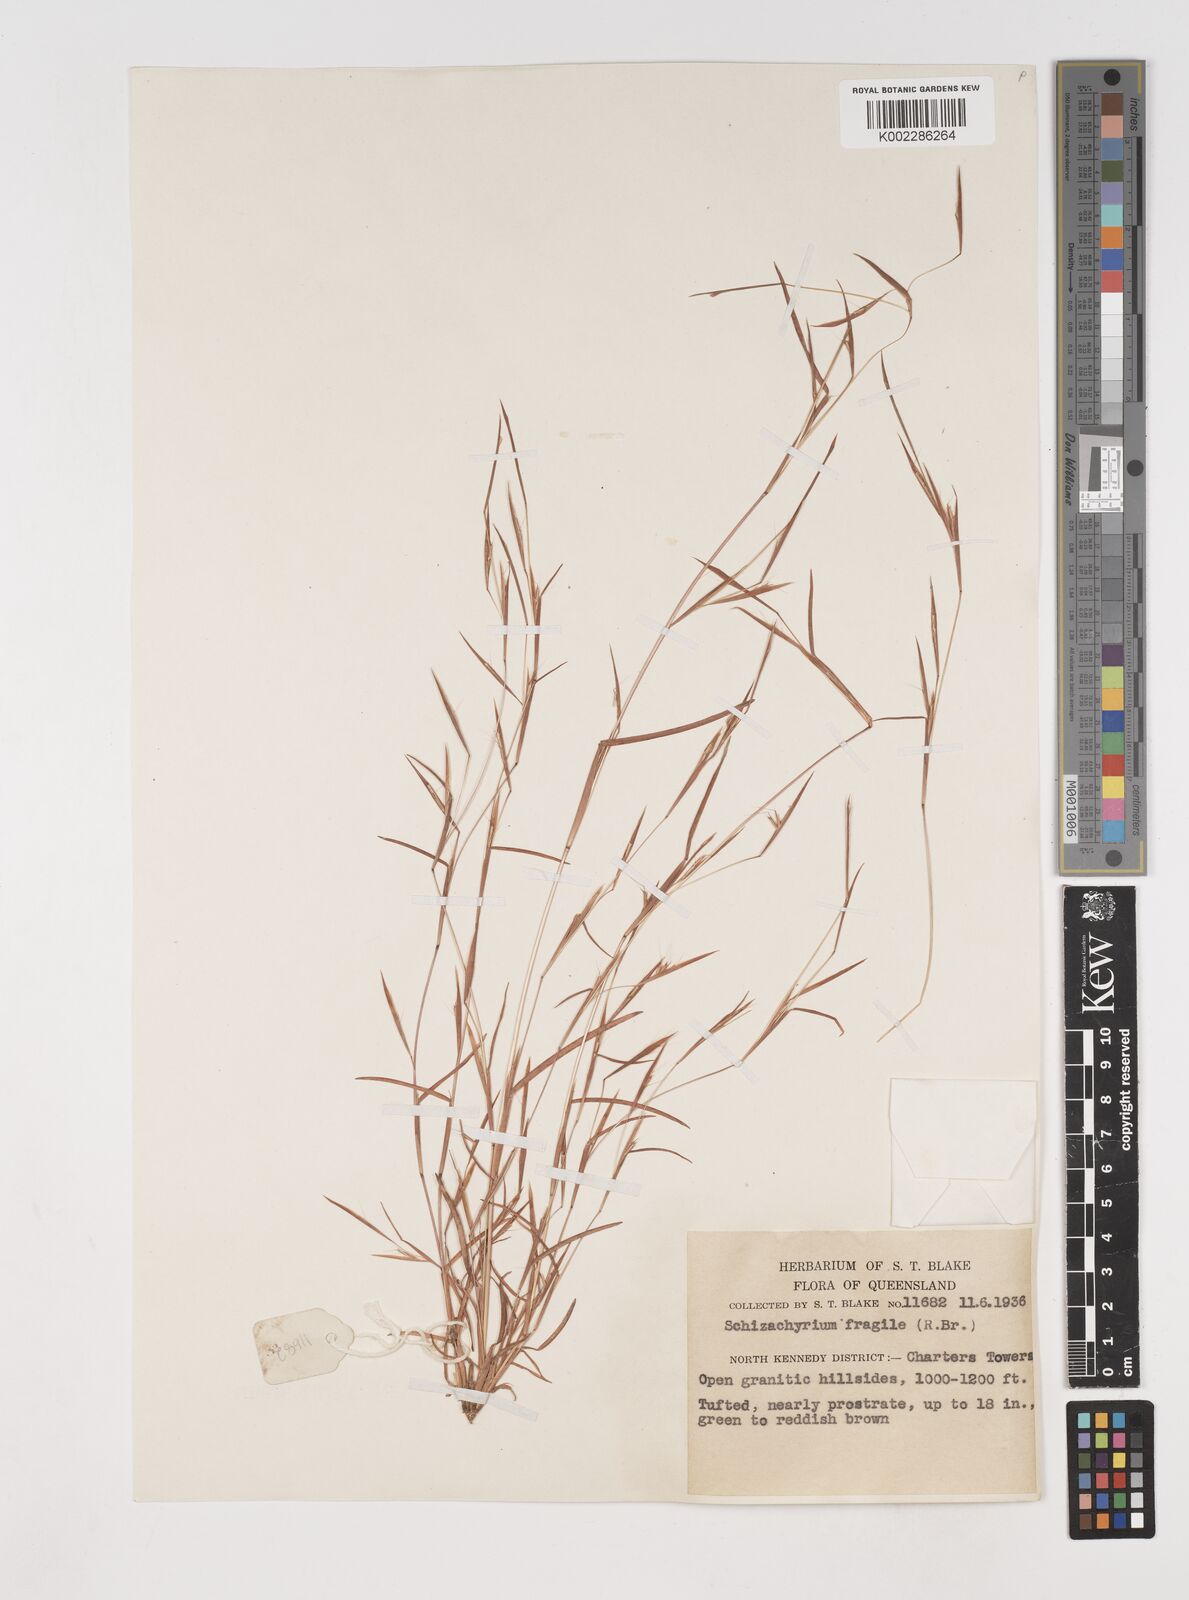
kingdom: Plantae
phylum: Tracheophyta
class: Liliopsida
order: Poales
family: Poaceae
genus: Schizachyrium
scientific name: Schizachyrium pseudeulalia
